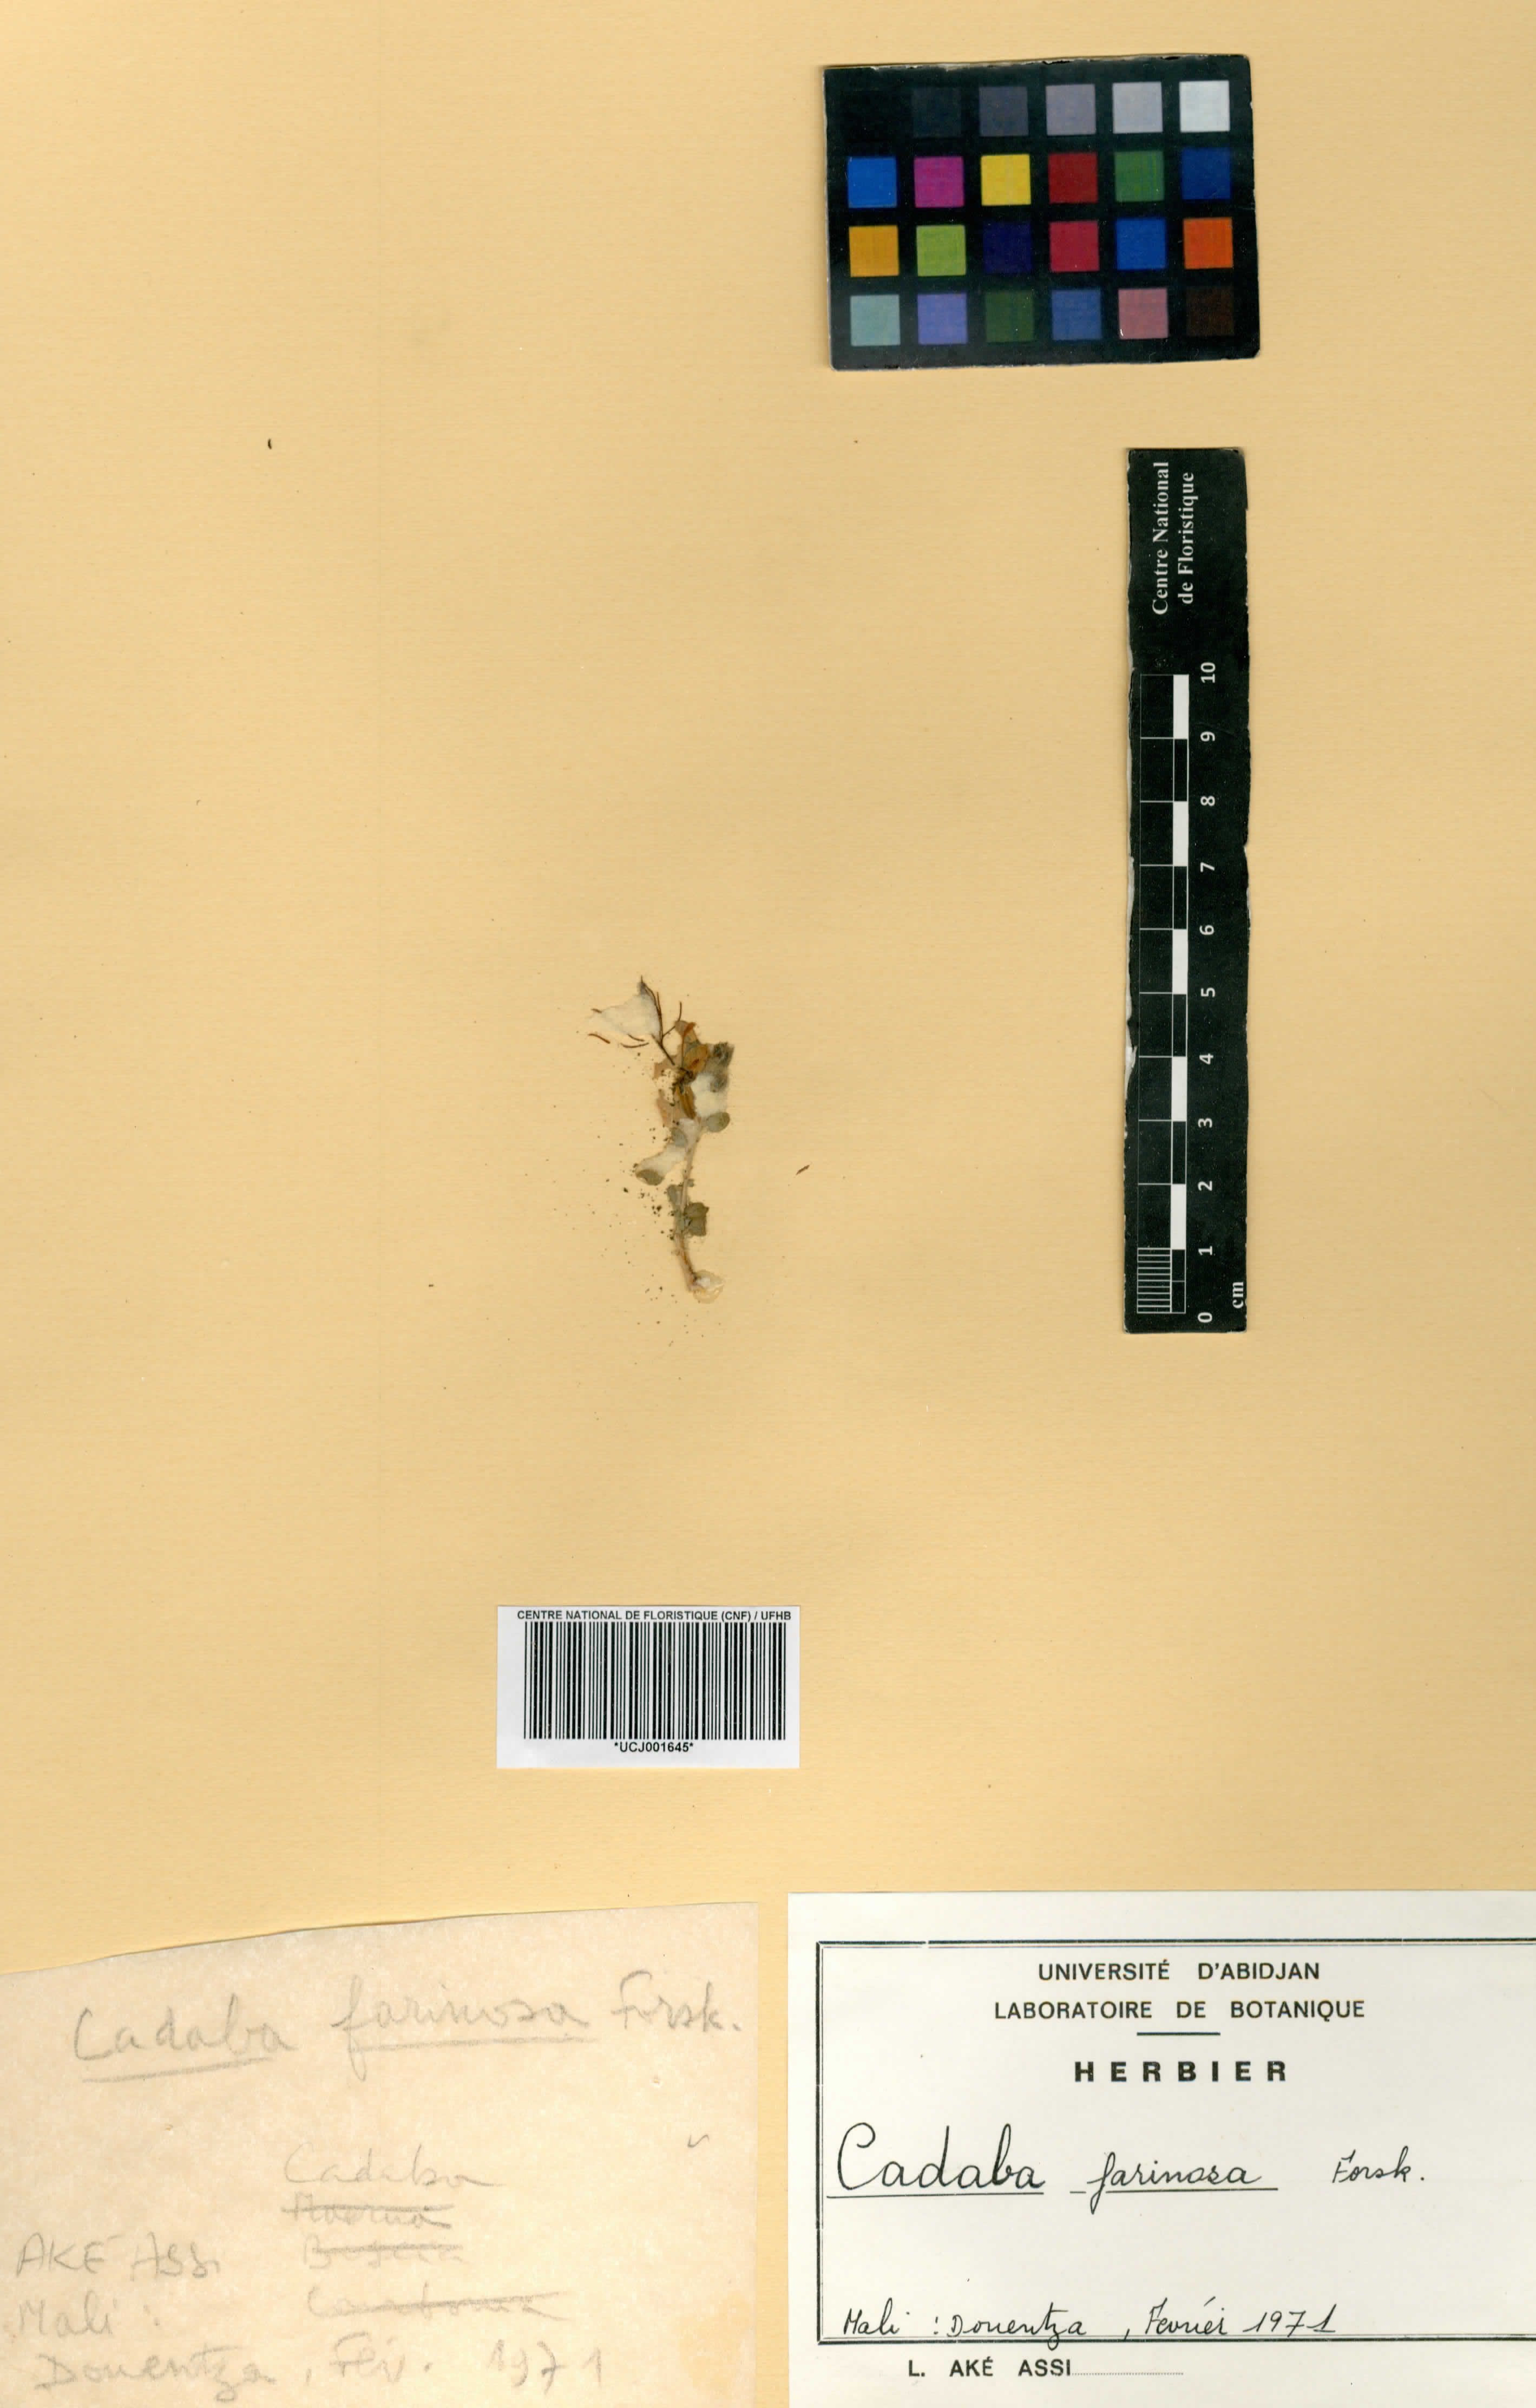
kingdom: Plantae
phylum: Tracheophyta
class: Magnoliopsida
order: Brassicales
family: Capparaceae
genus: Cadaba
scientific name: Cadaba farinosa
